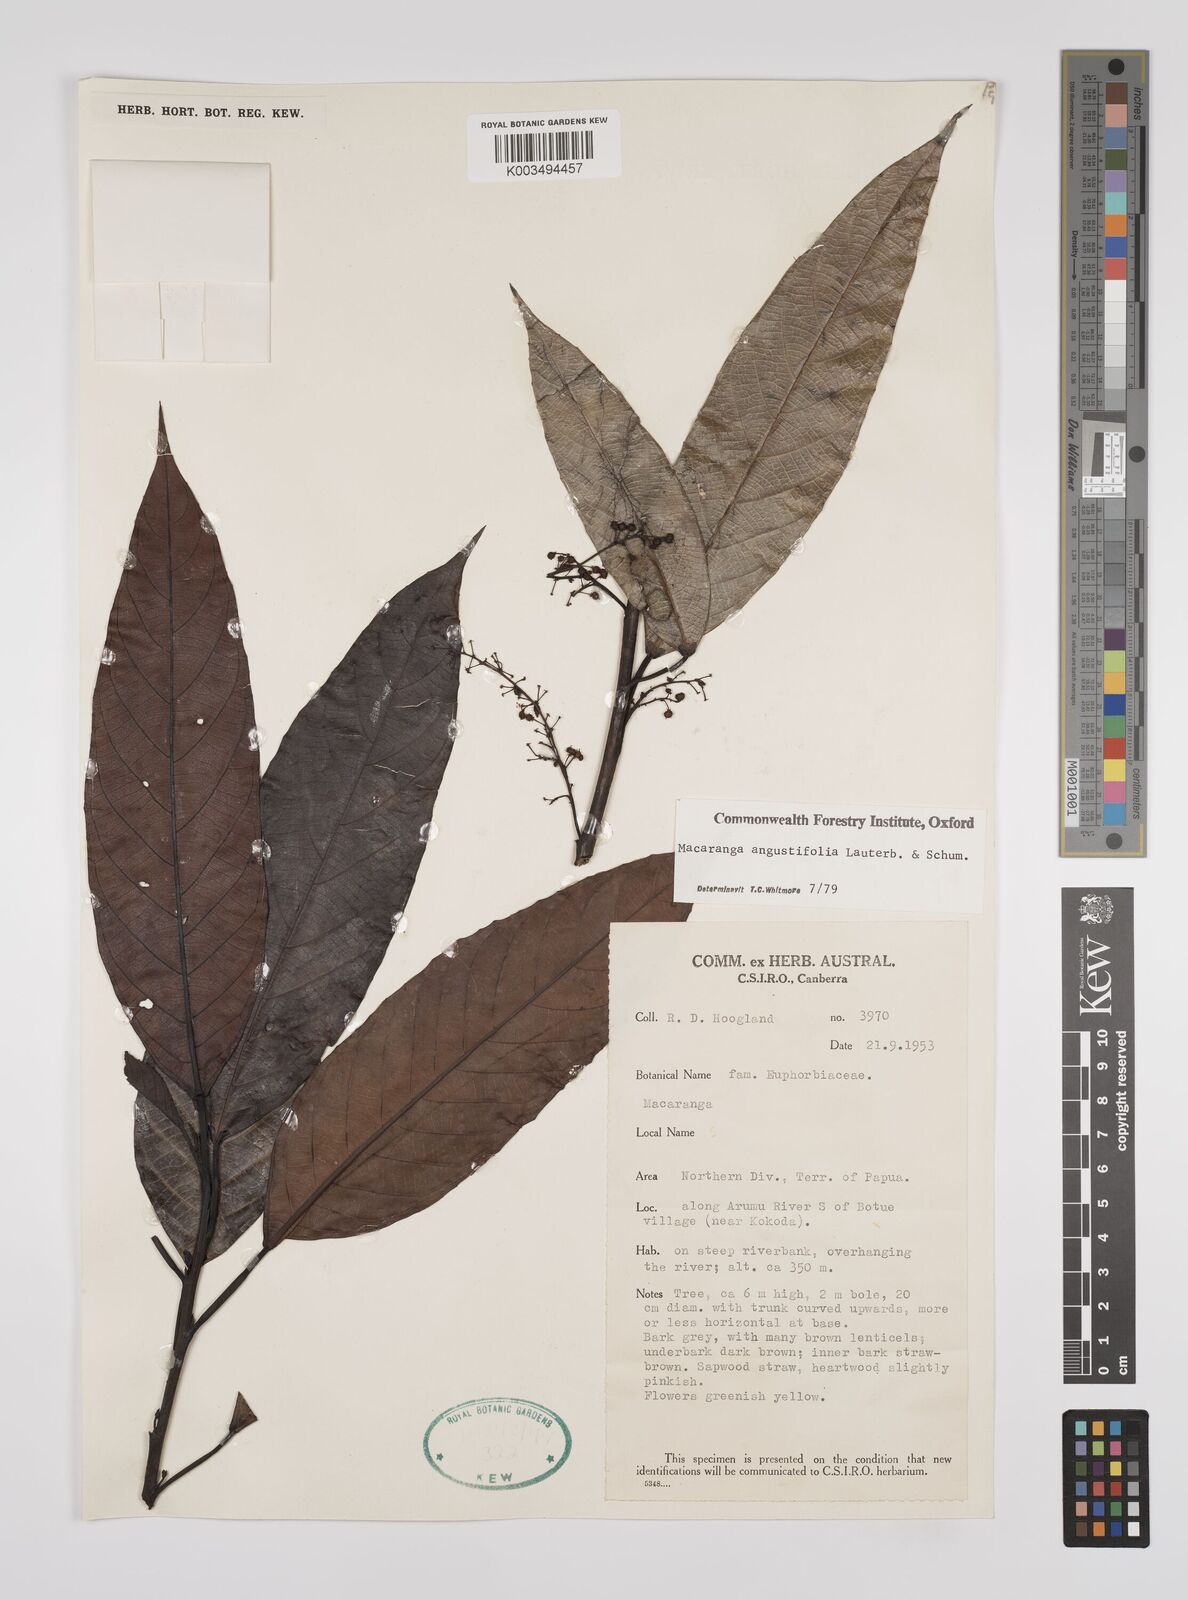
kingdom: Plantae
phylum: Tracheophyta
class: Magnoliopsida
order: Malpighiales
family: Euphorbiaceae
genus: Macaranga
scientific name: Macaranga angustifolia
